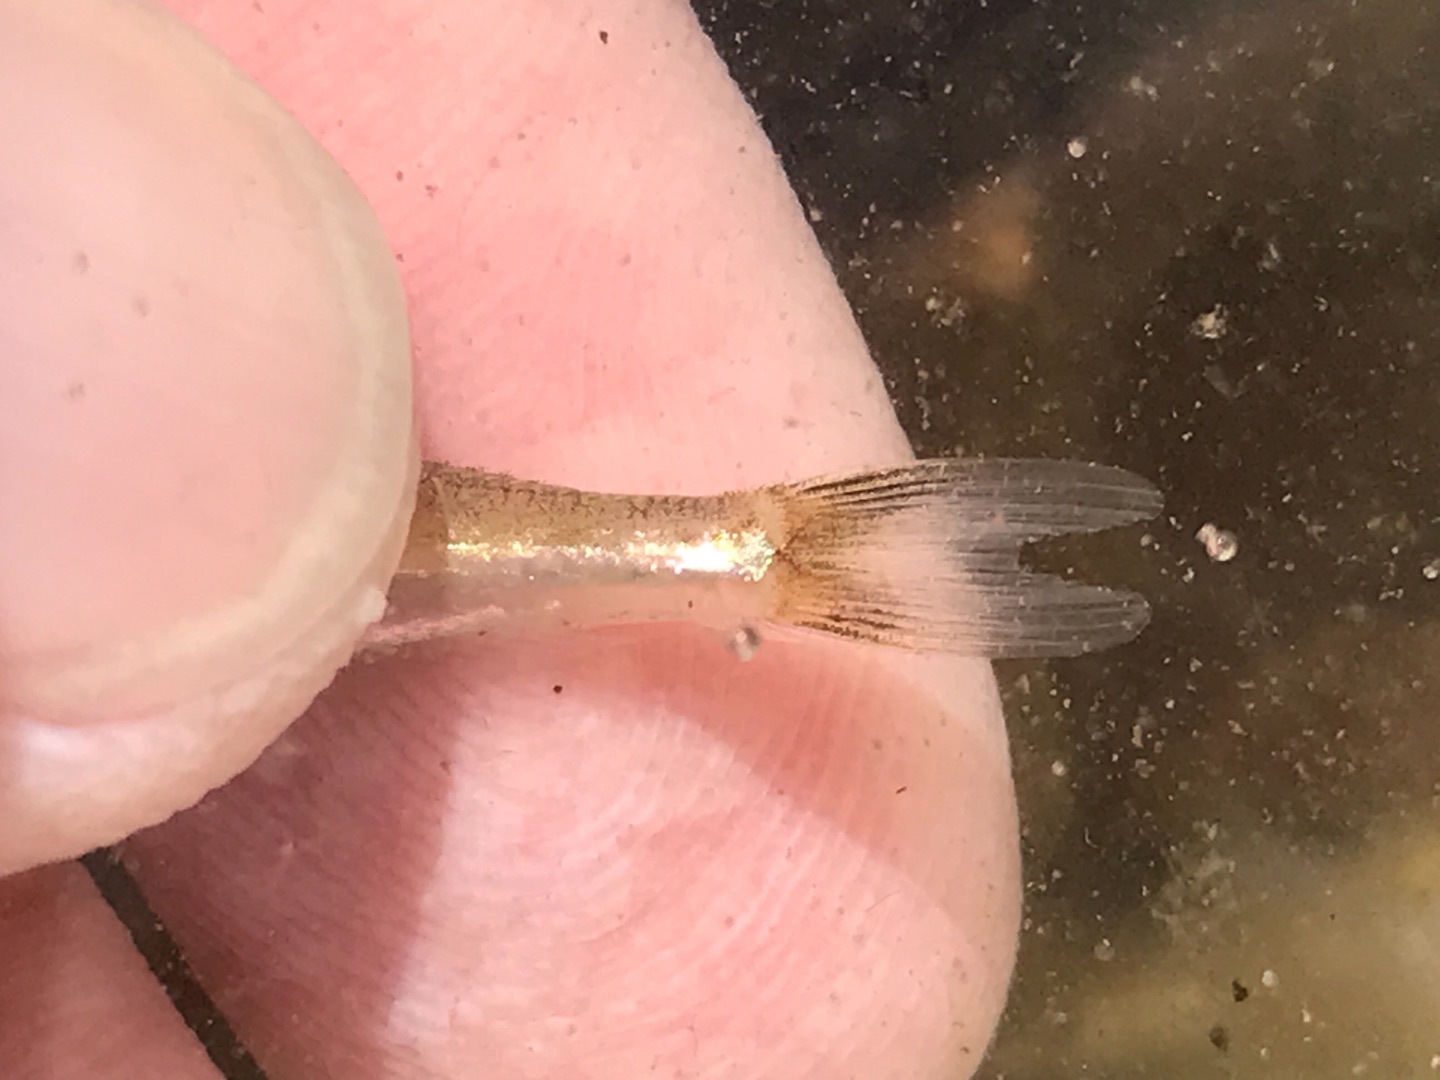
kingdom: Animalia
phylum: Chordata
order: Perciformes
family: Ammodytidae
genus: Ammodytes
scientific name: Ammodytes tobianus
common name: Kysttobis
